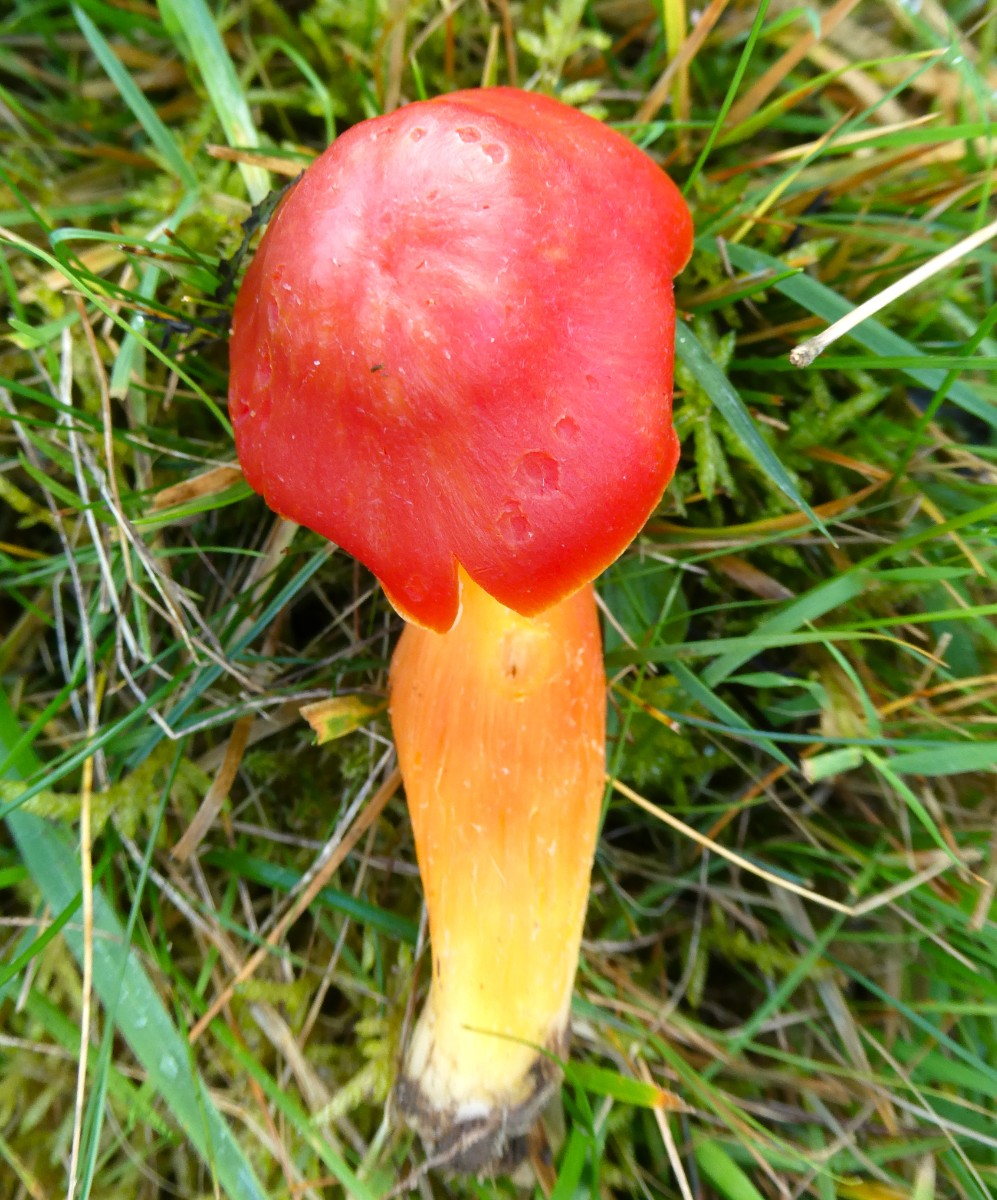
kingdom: Fungi
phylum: Basidiomycota
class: Agaricomycetes
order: Agaricales
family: Hygrophoraceae
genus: Hygrocybe
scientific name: Hygrocybe splendidissima
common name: knaldrød vokshat
